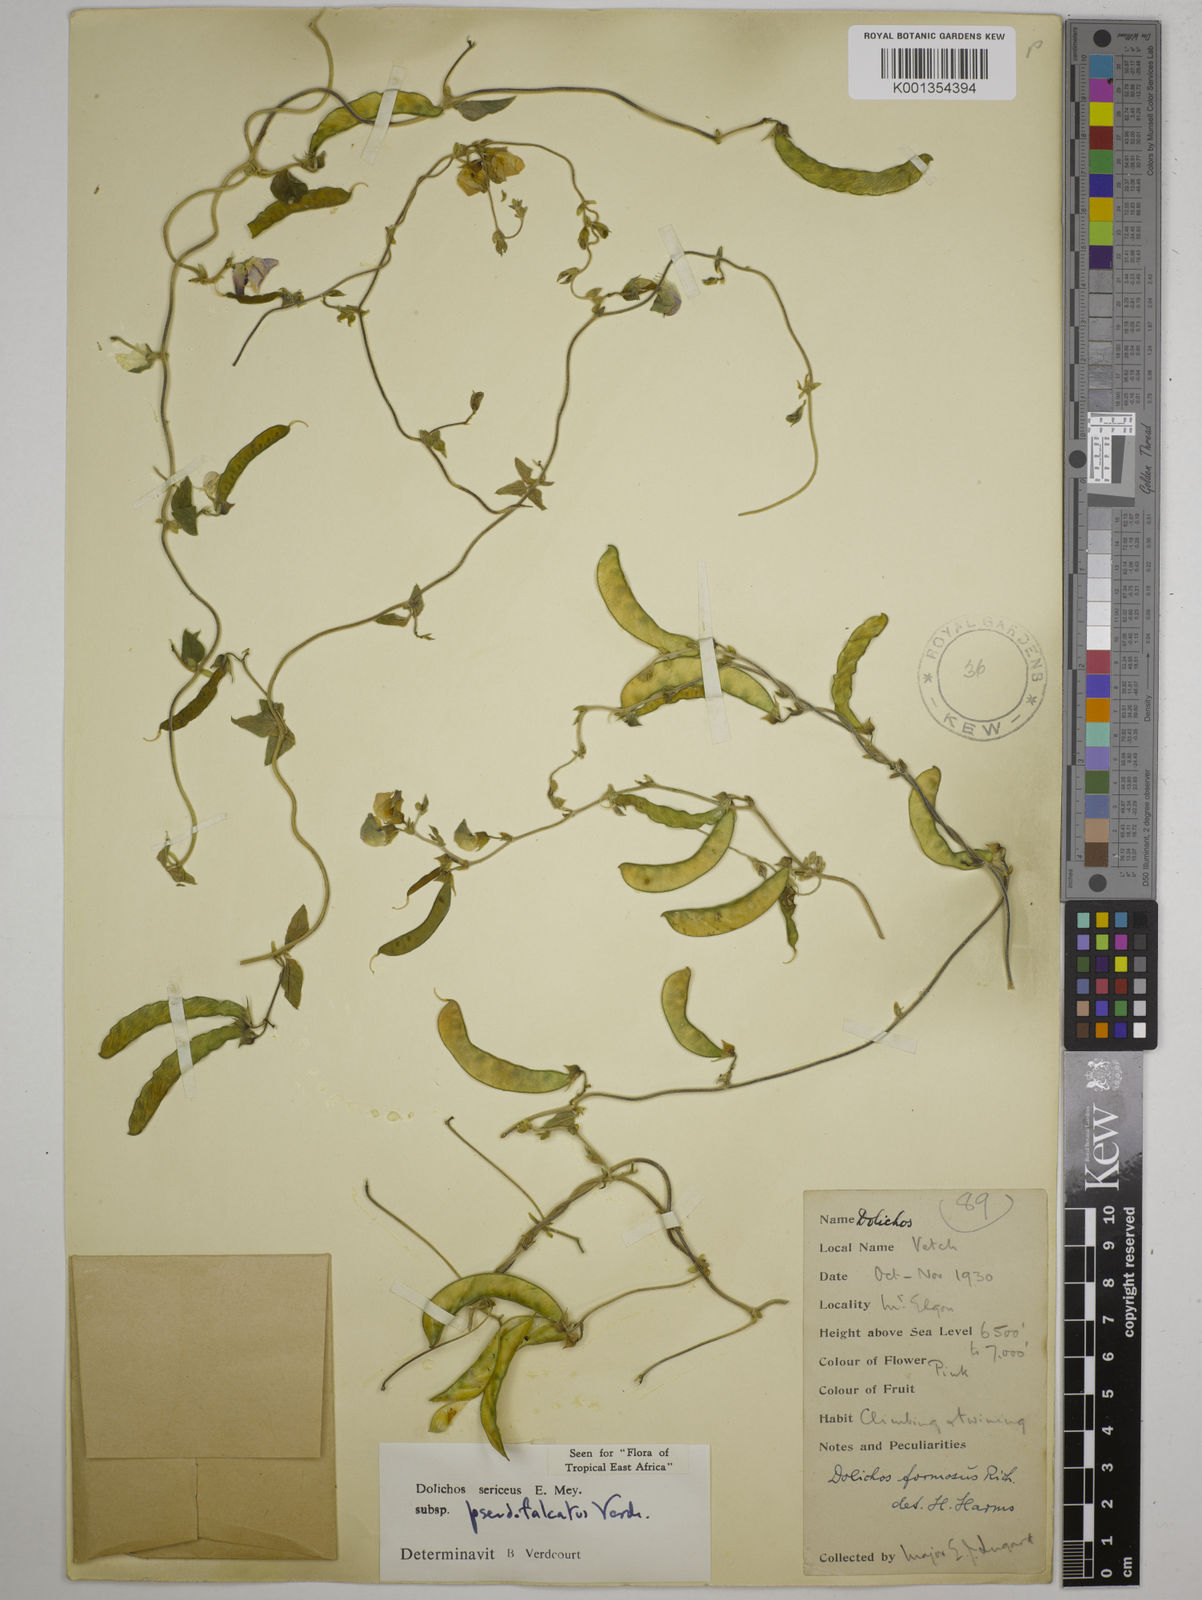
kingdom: Plantae
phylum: Tracheophyta
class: Magnoliopsida
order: Fabales
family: Fabaceae
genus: Dolichos
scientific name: Dolichos
